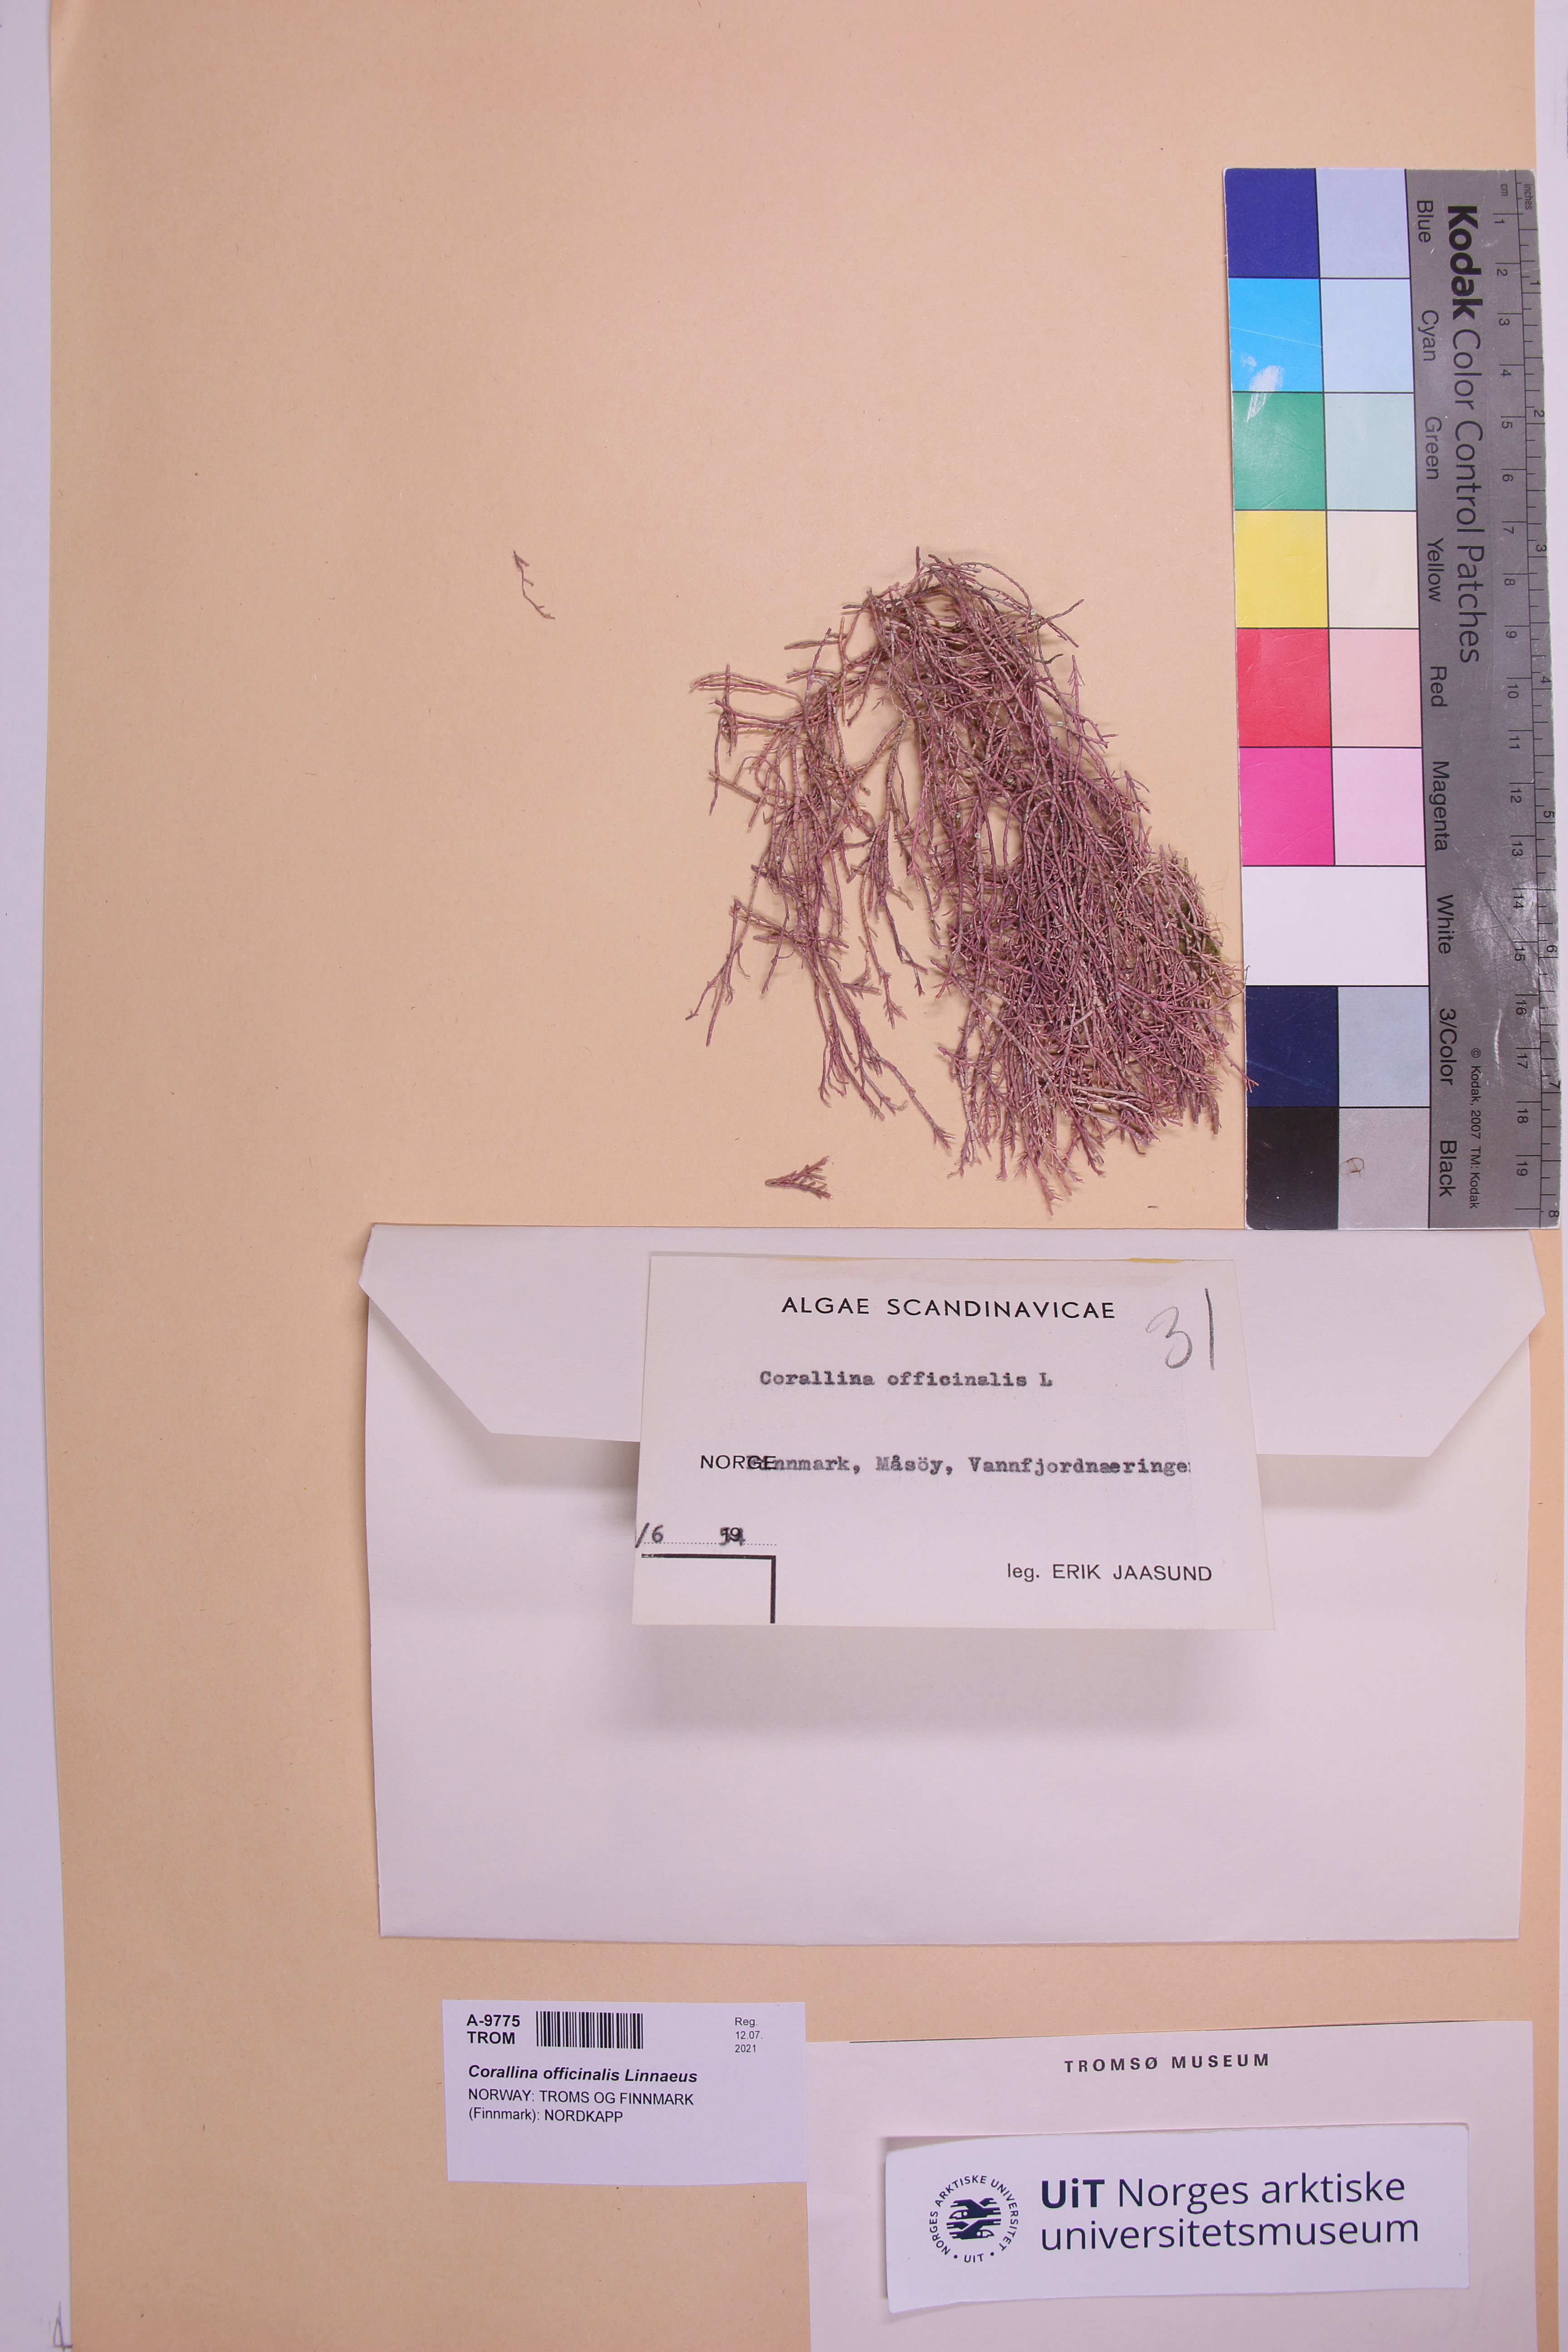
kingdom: Plantae
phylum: Rhodophyta
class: Florideophyceae
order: Corallinales
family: Corallinaceae
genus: Corallina
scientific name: Corallina officinalis
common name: Coral weed
